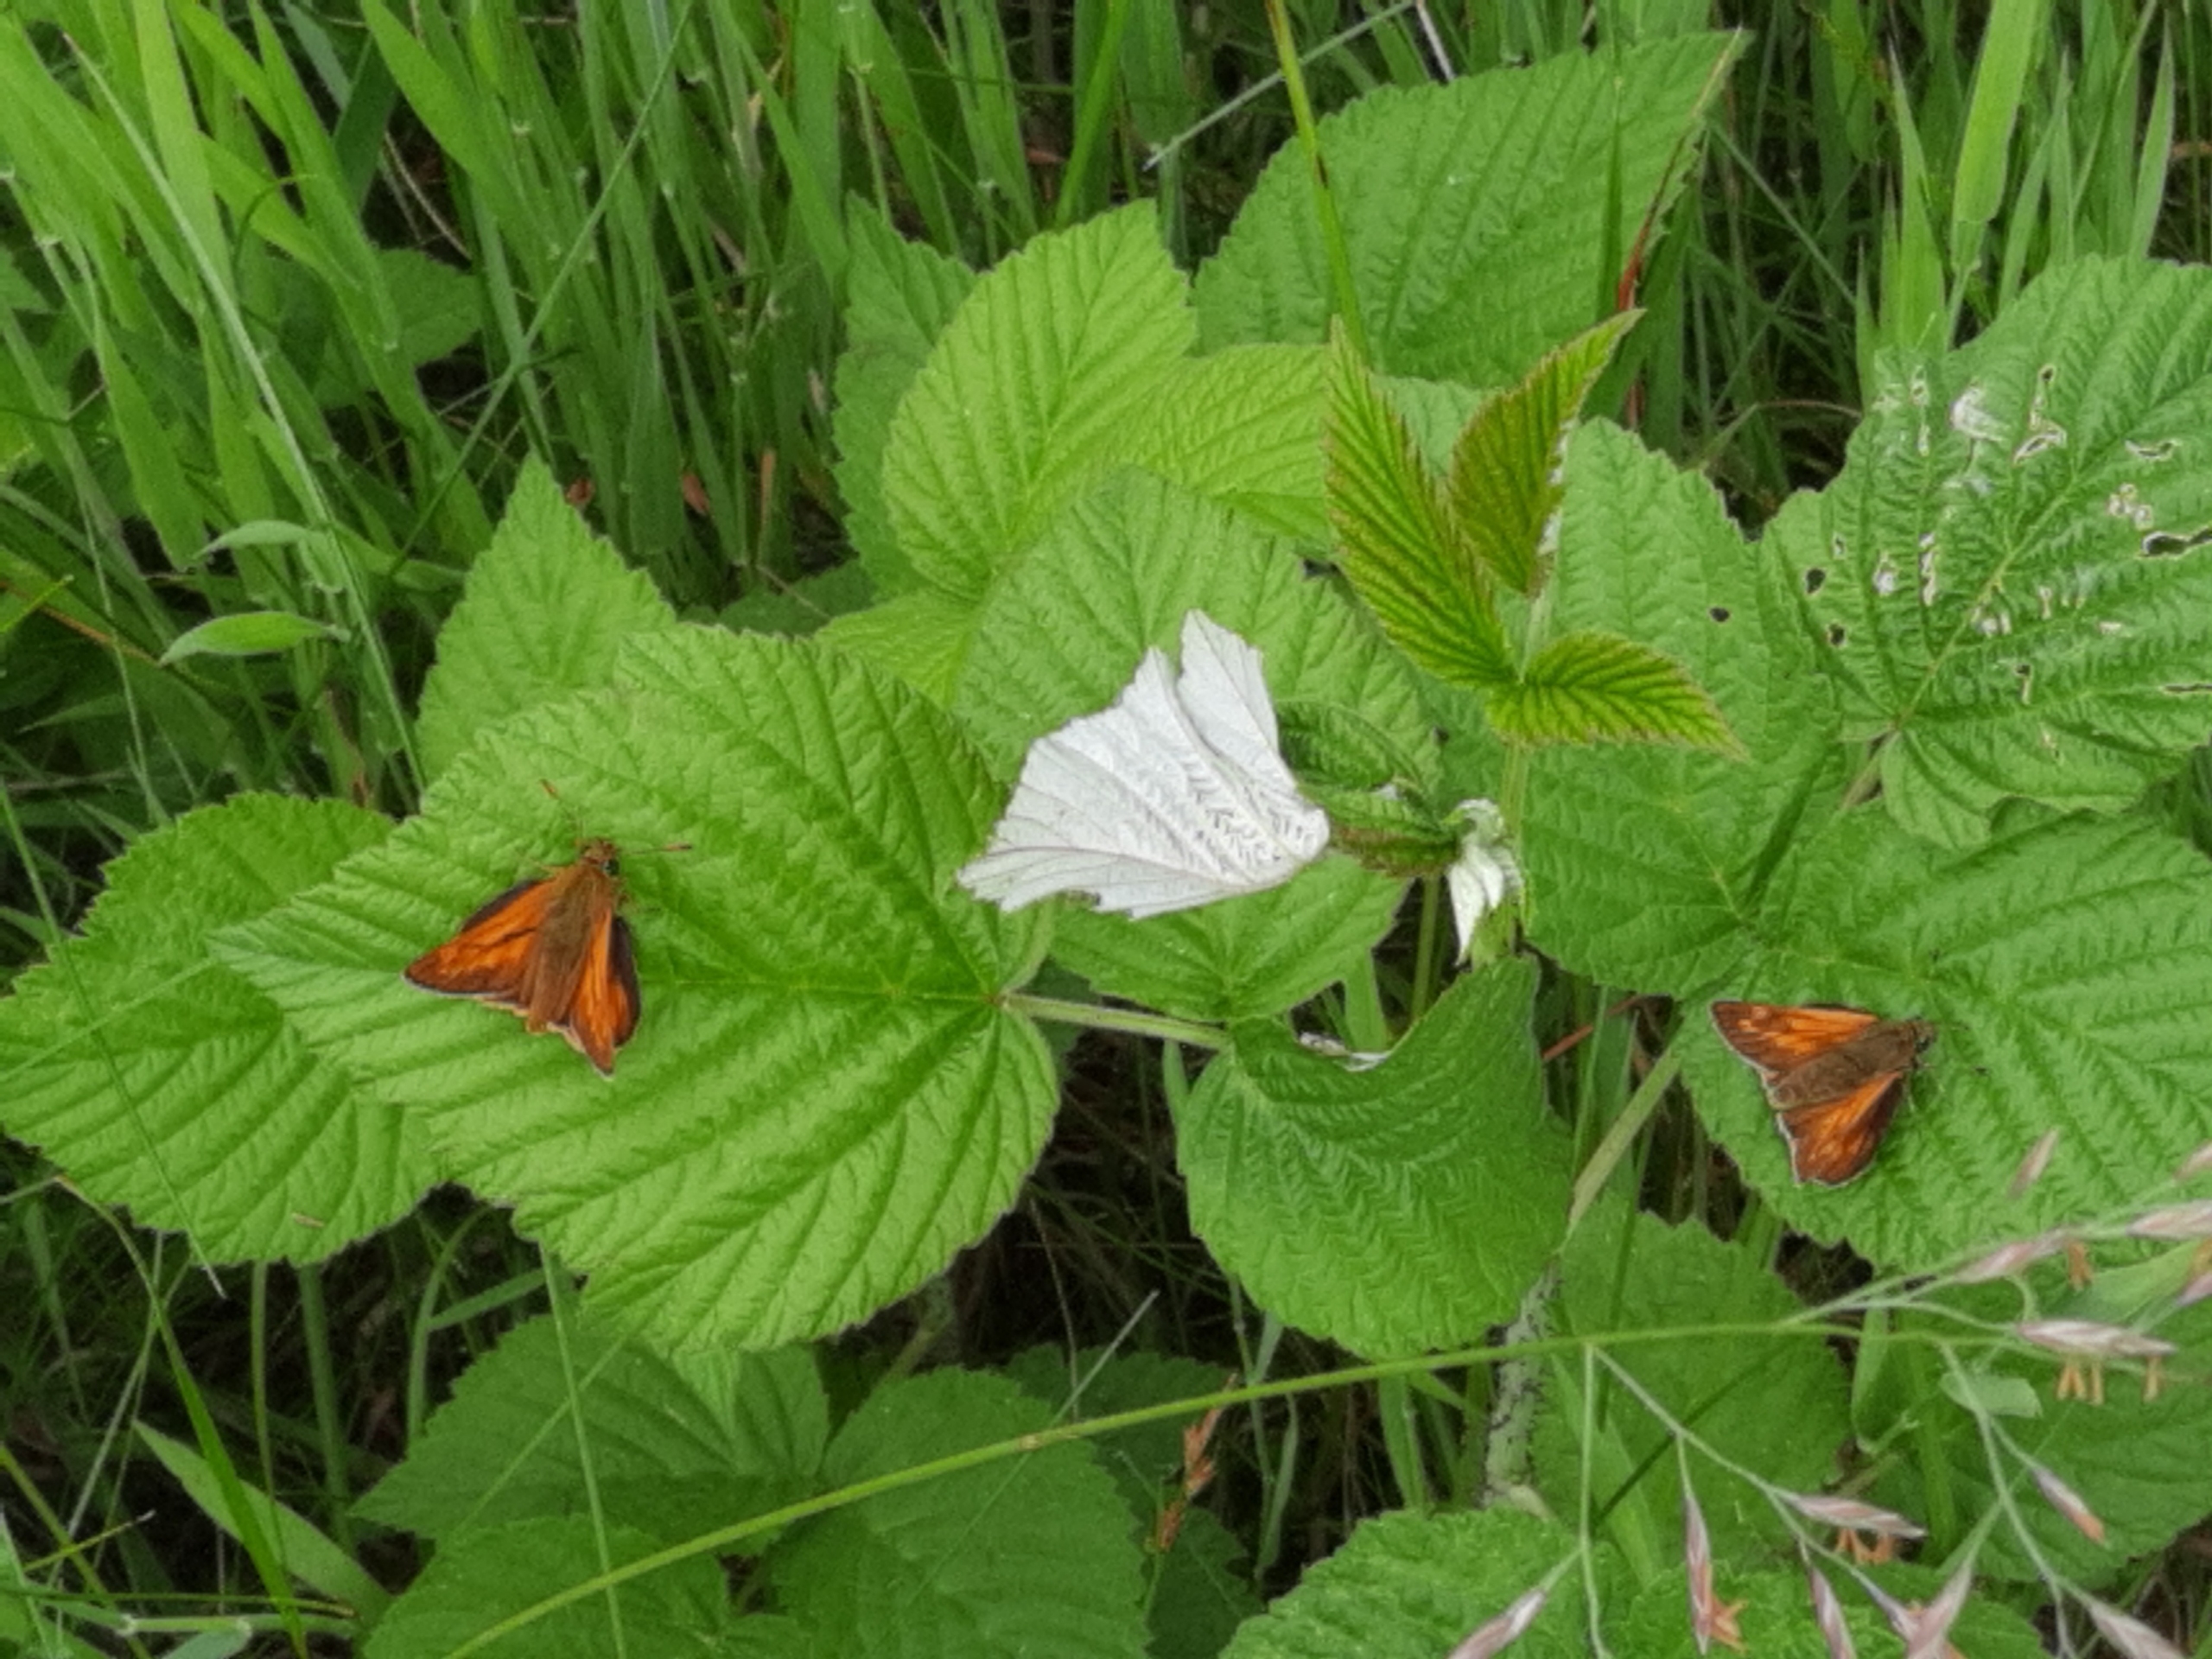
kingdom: Animalia
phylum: Arthropoda
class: Insecta
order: Lepidoptera
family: Hesperiidae
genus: Ochlodes
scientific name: Ochlodes venata
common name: Stor bredpande
